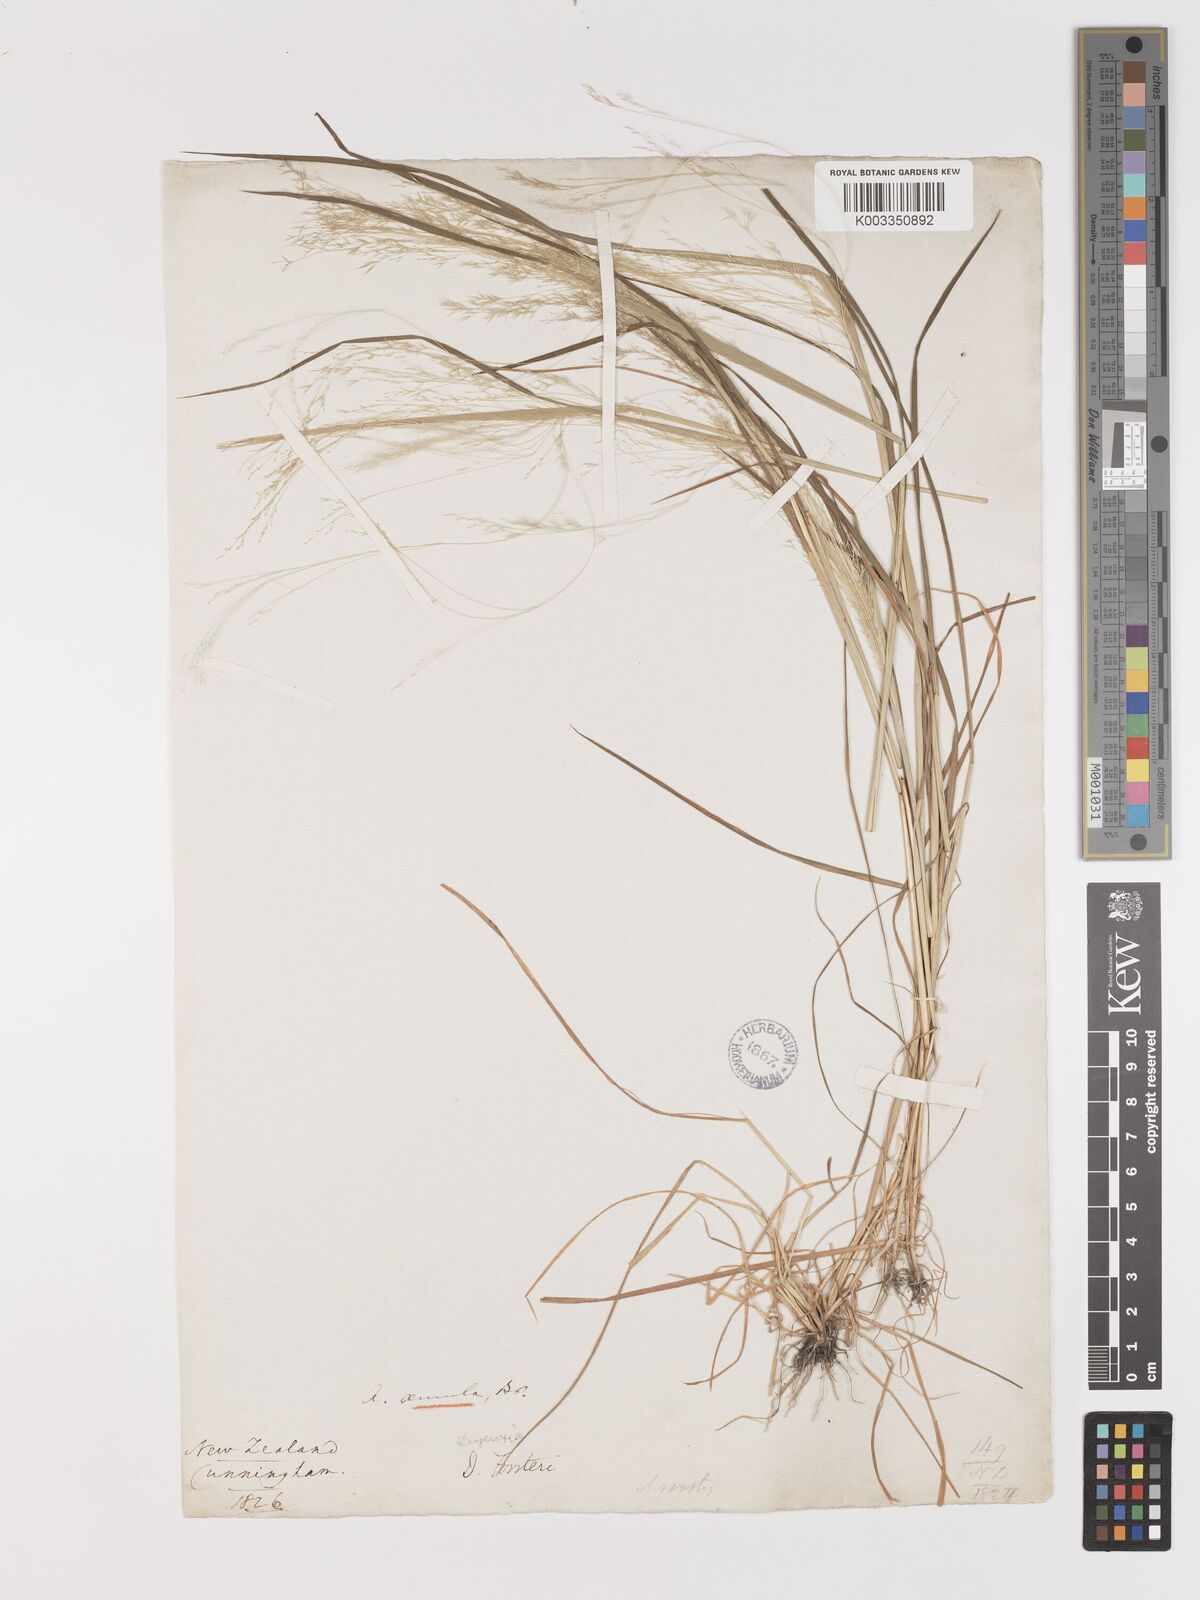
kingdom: Plantae
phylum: Tracheophyta
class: Liliopsida
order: Poales
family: Poaceae
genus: Lachnagrostis
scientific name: Lachnagrostis filiformis
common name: Bentgrass
